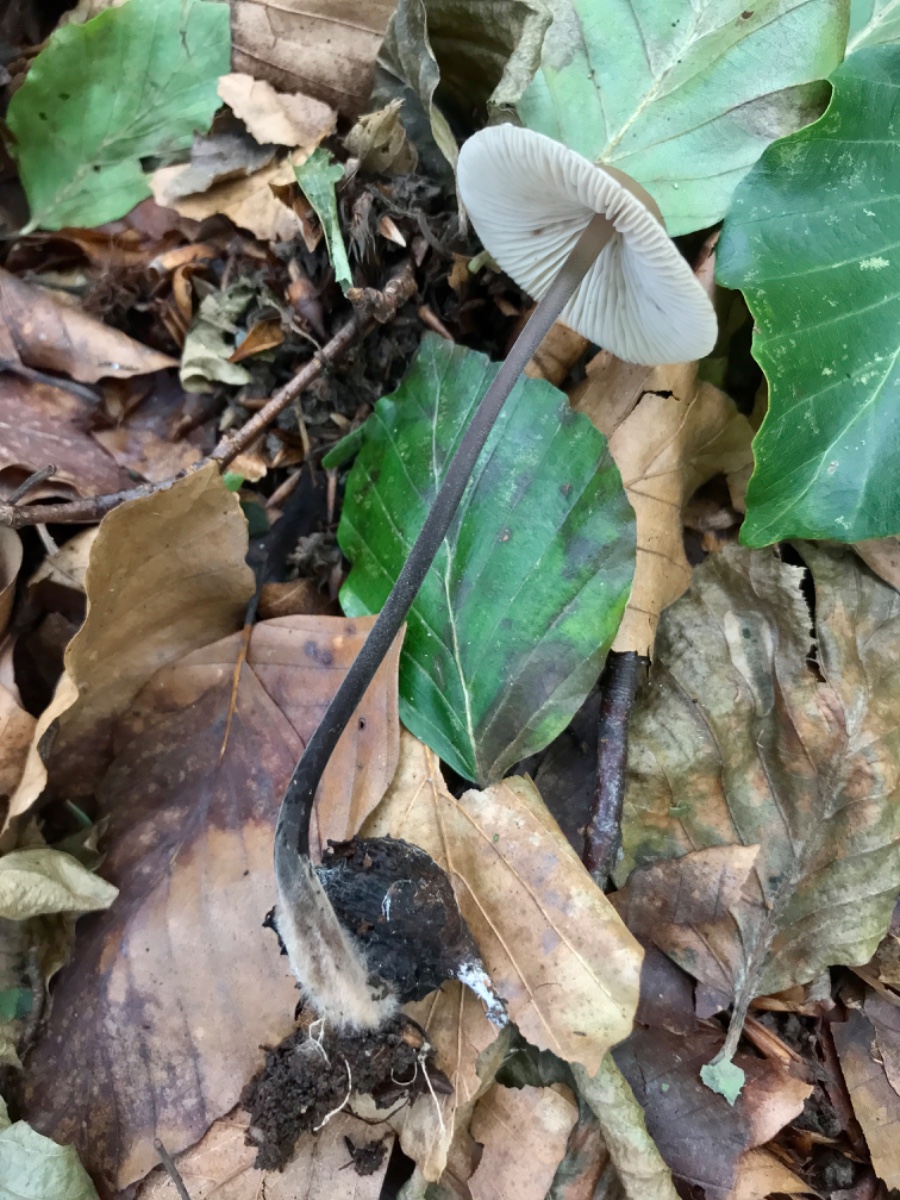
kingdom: Fungi
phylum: Basidiomycota
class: Agaricomycetes
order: Agaricales
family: Omphalotaceae
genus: Mycetinis
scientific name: Mycetinis alliaceus
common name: stor løghat
